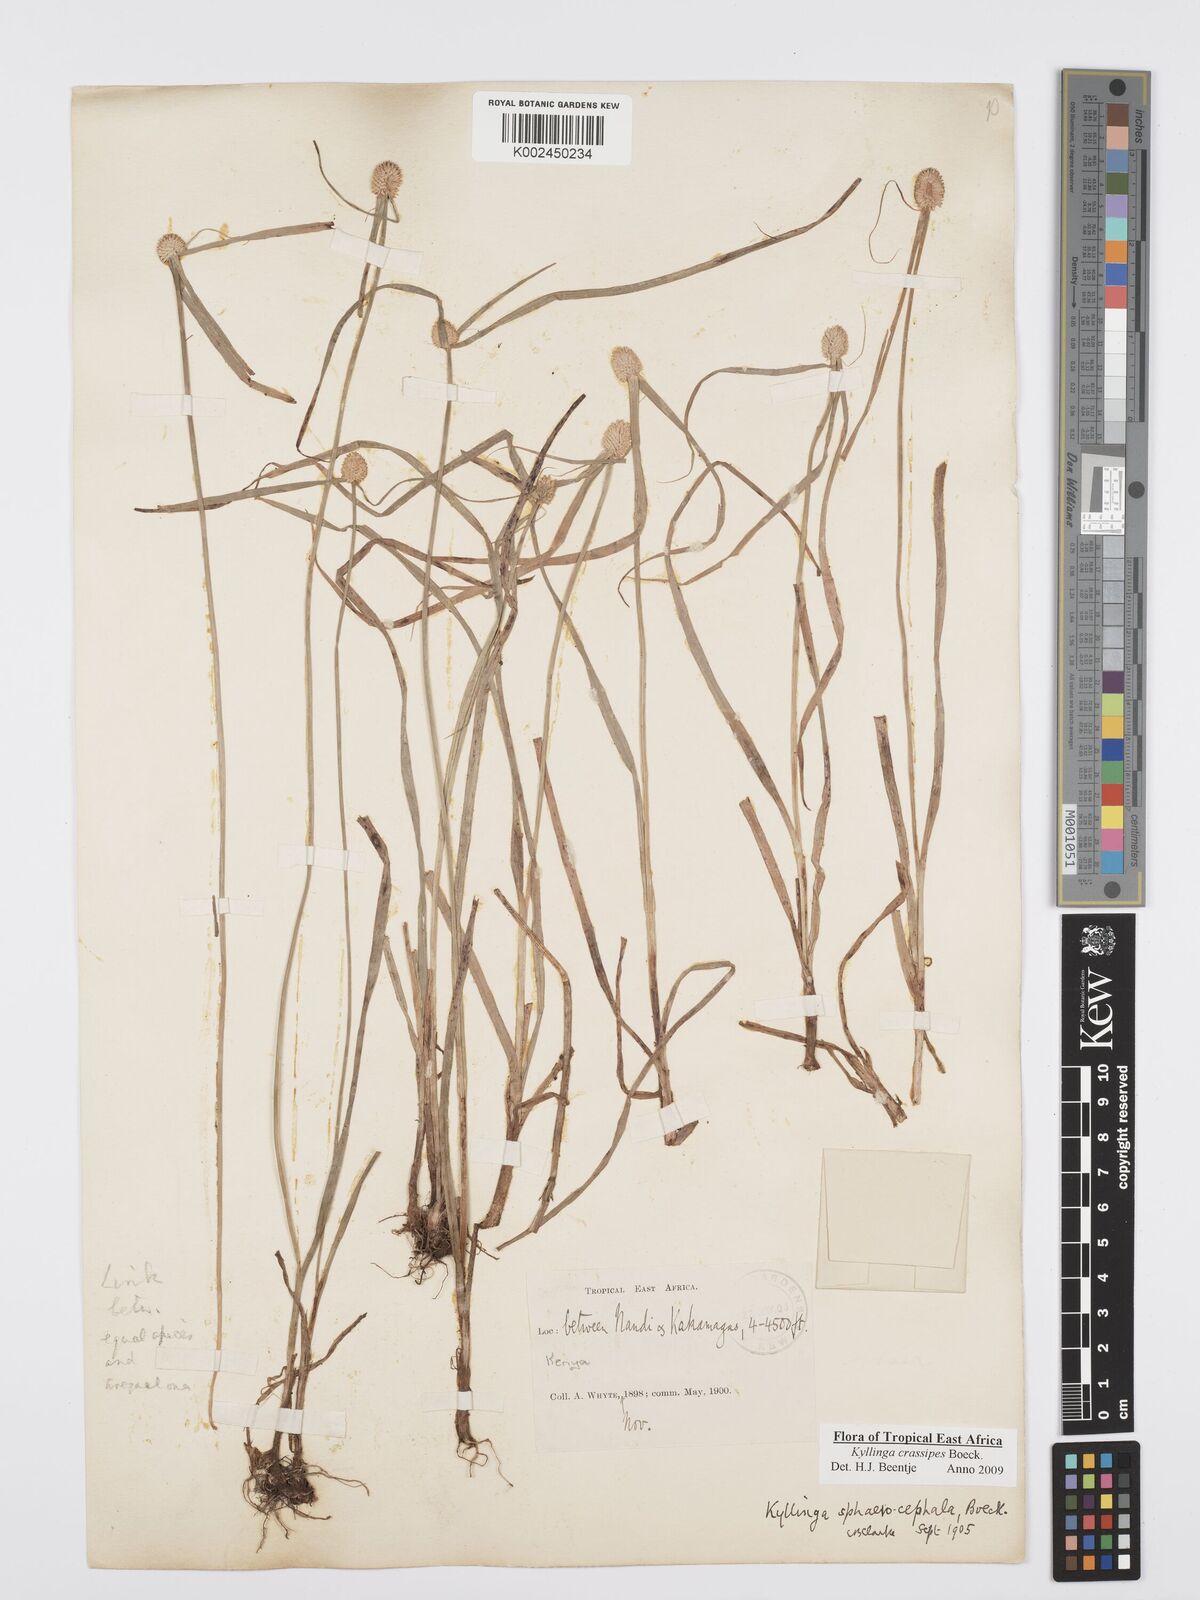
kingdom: Plantae
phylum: Tracheophyta
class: Liliopsida
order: Poales
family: Cyperaceae
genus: Cyperus
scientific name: Cyperus crassipes
